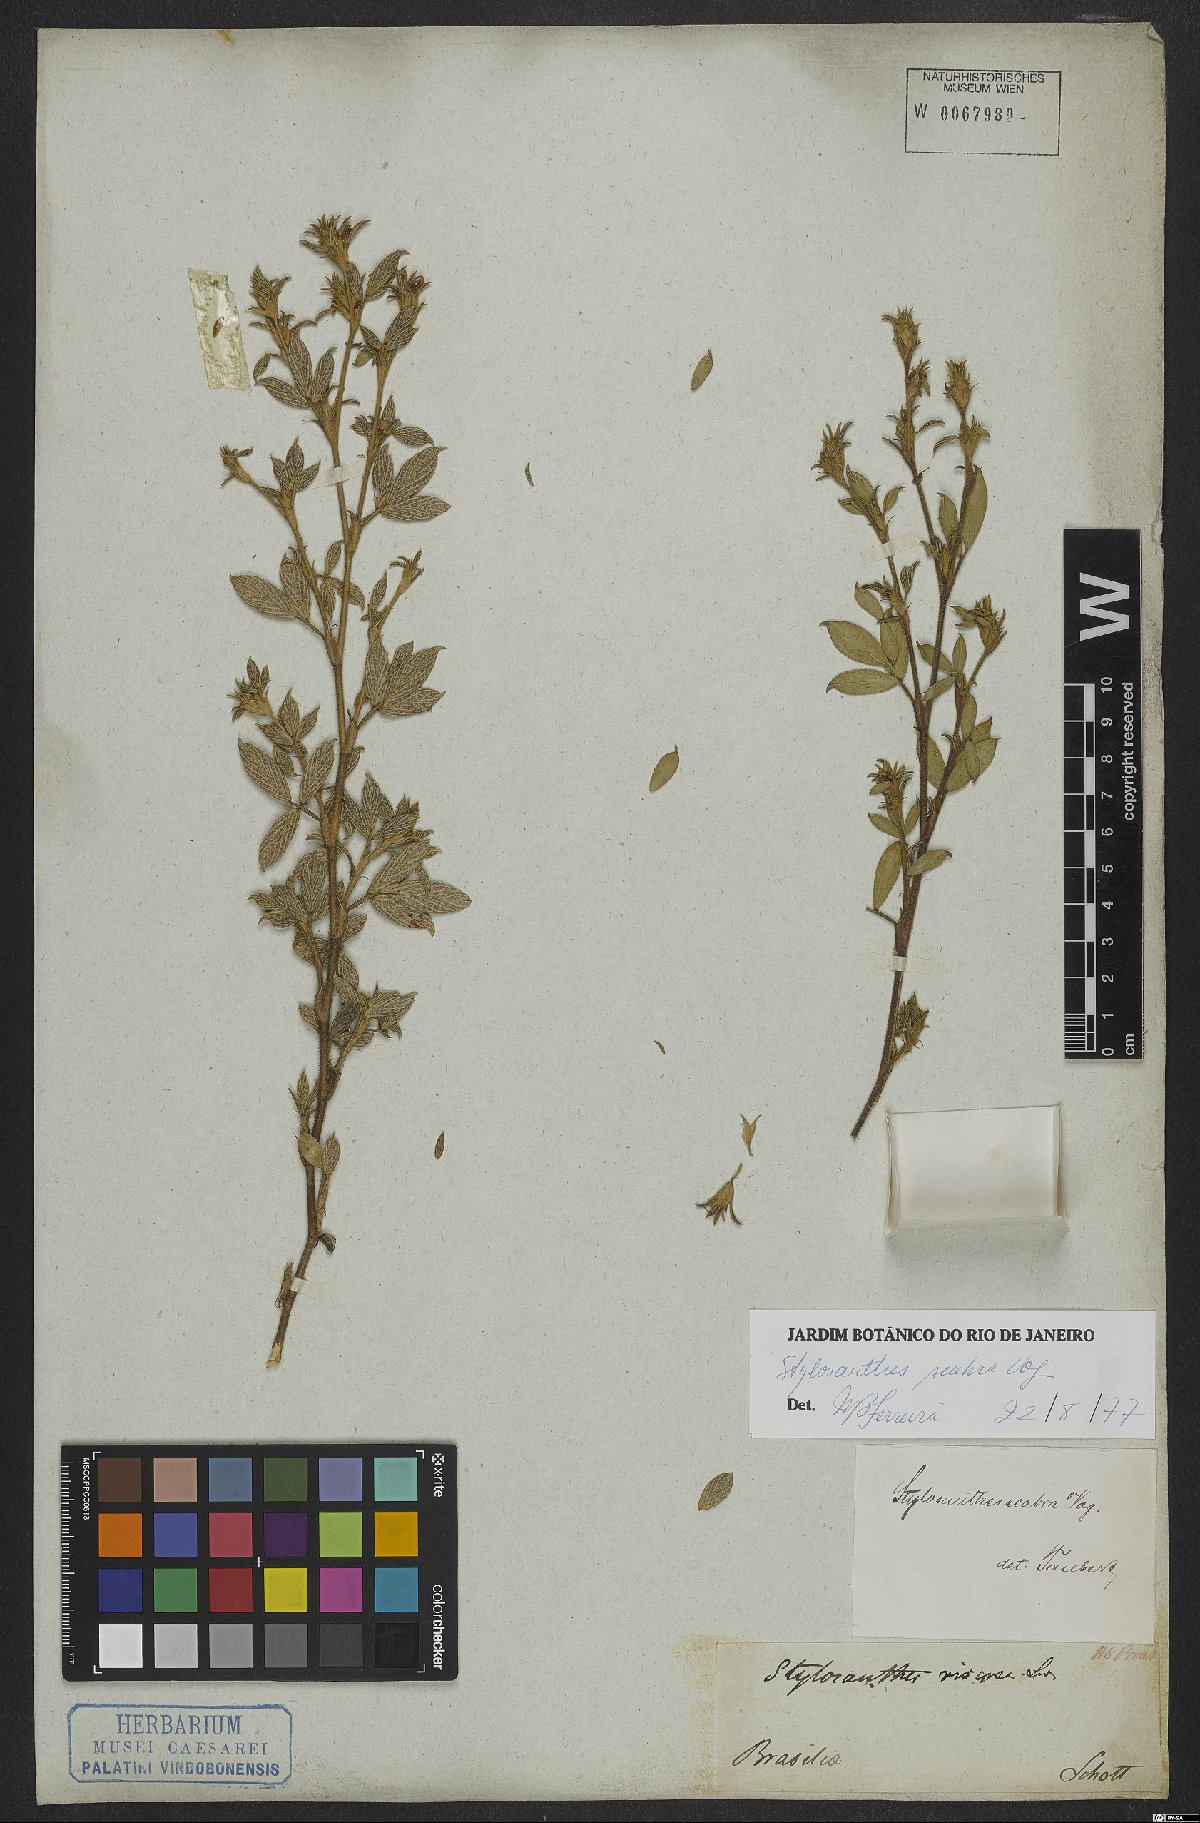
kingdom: Plantae
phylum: Tracheophyta
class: Magnoliopsida
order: Fabales
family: Fabaceae
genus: Stylosanthes
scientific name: Stylosanthes scabra
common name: Pencilflower
